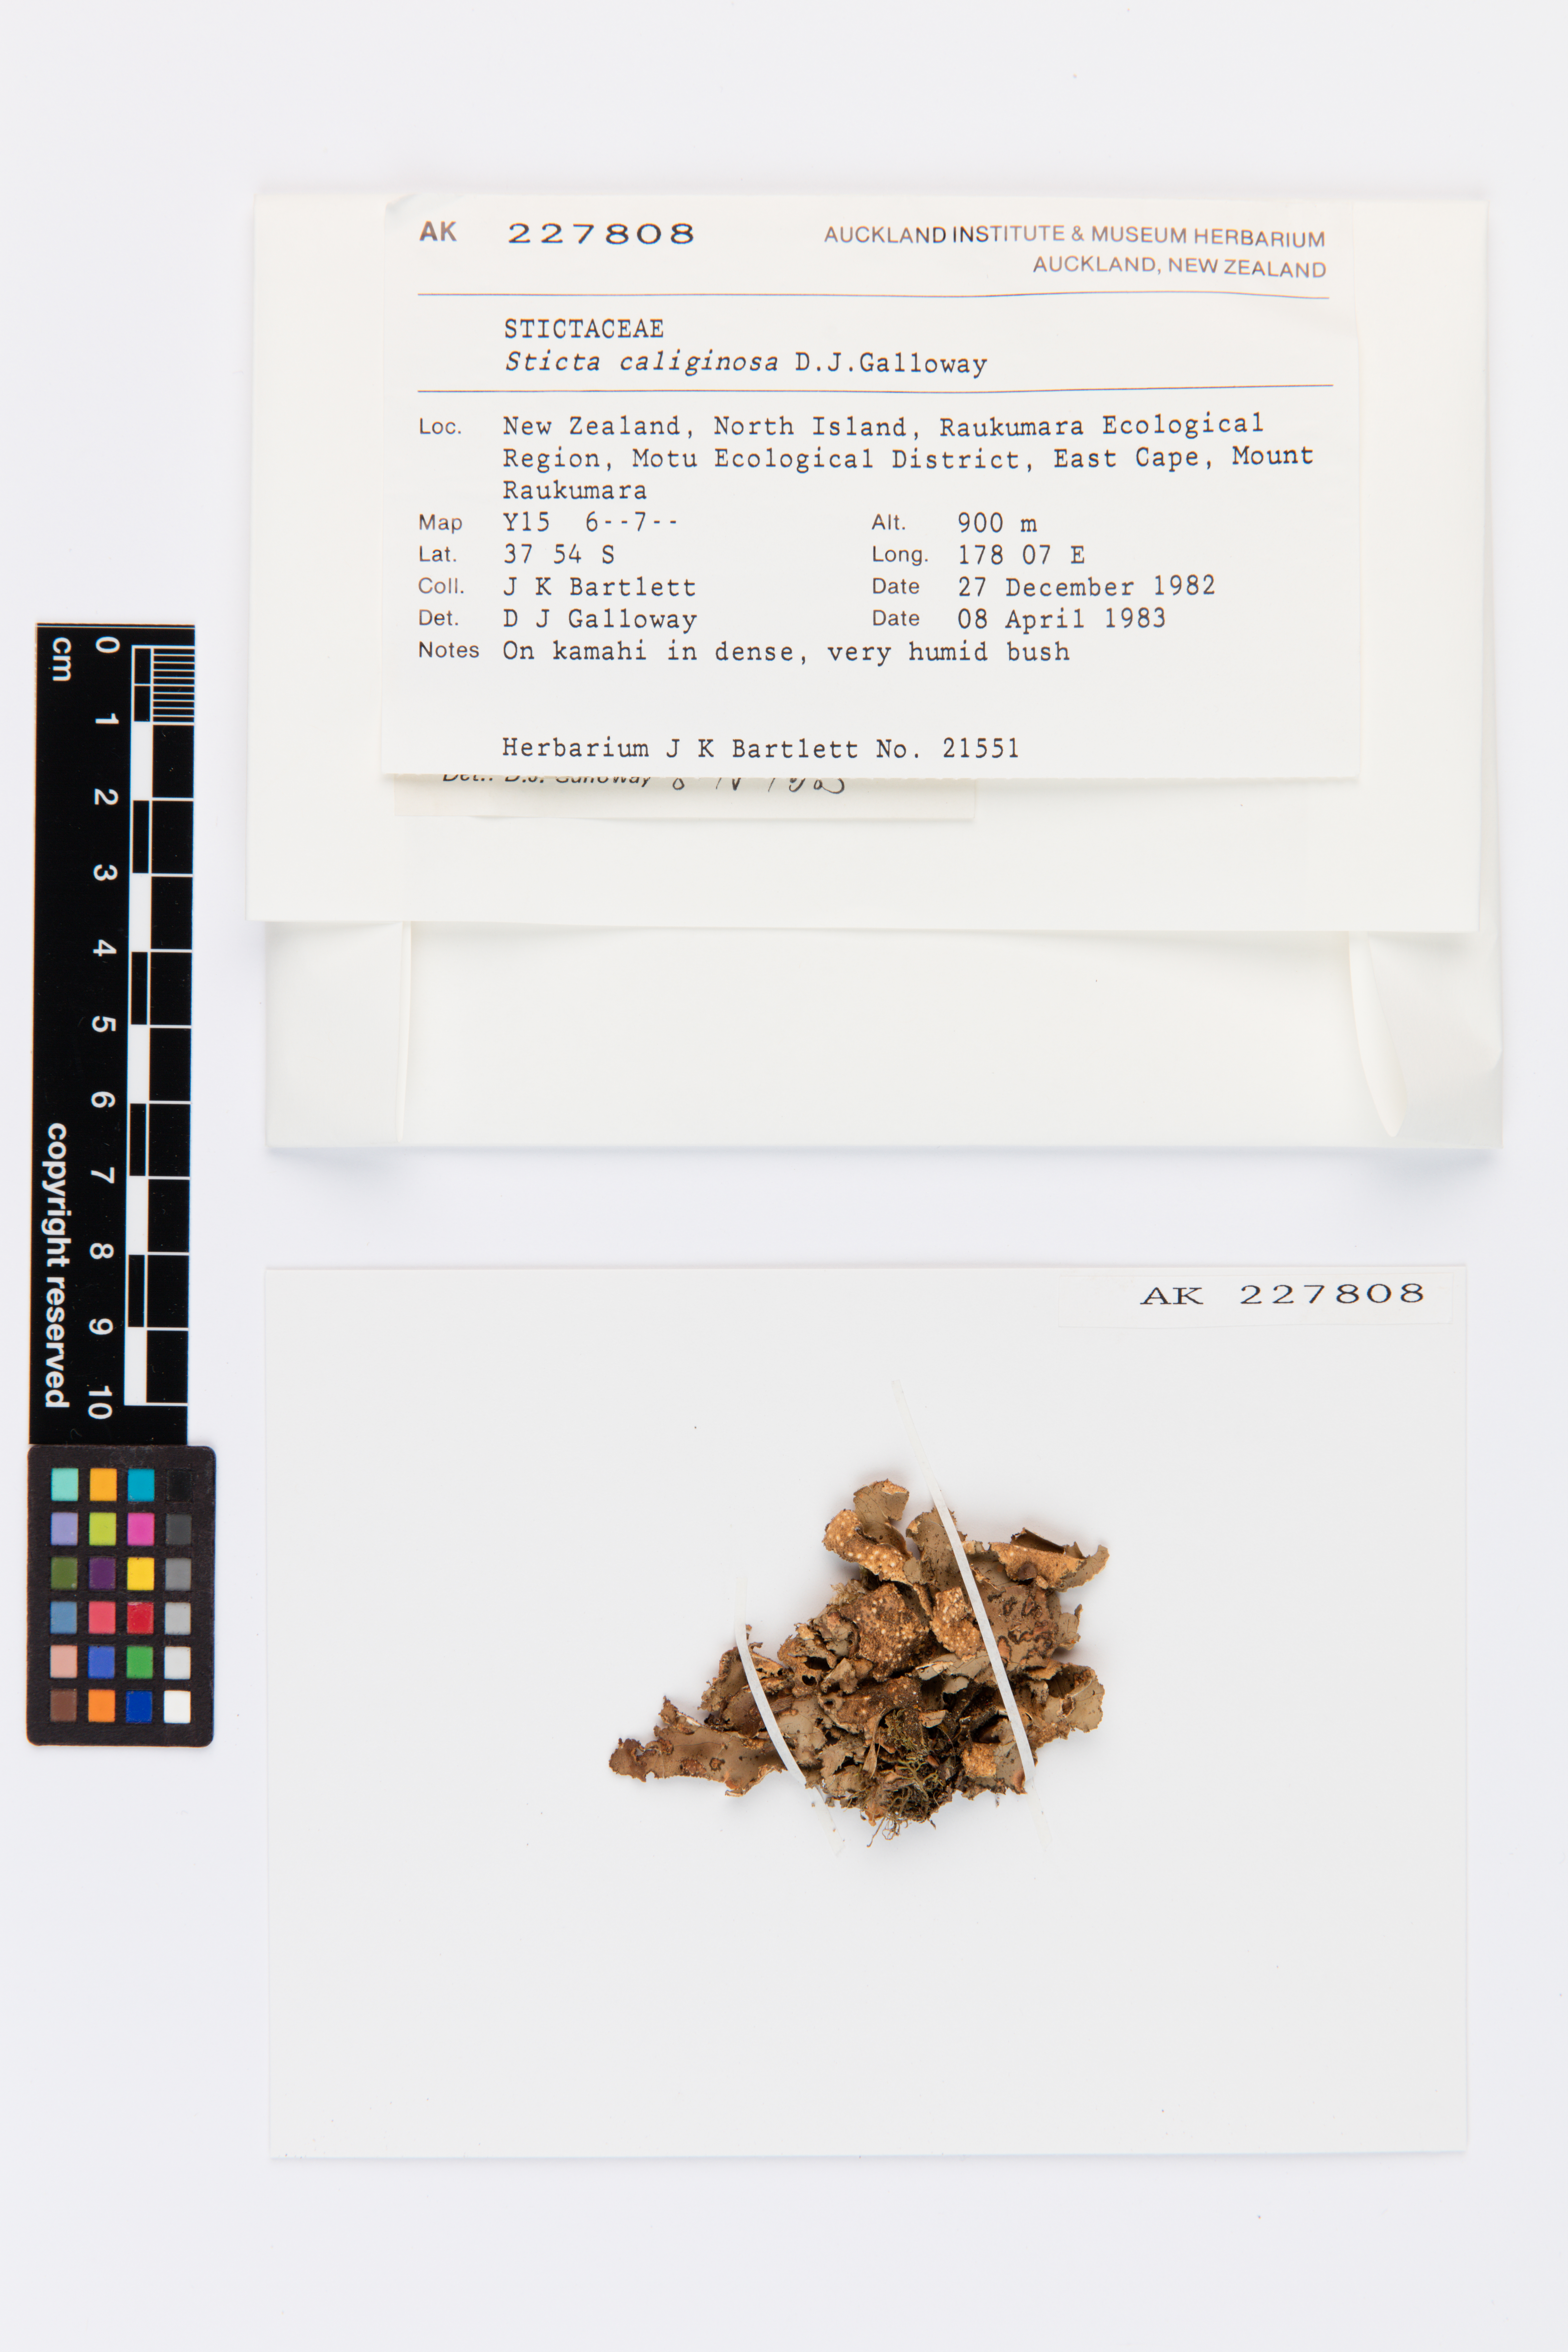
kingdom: Fungi
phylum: Ascomycota
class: Lecanoromycetes
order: Peltigerales
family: Lobariaceae
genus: Sticta
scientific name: Sticta caliginosa
